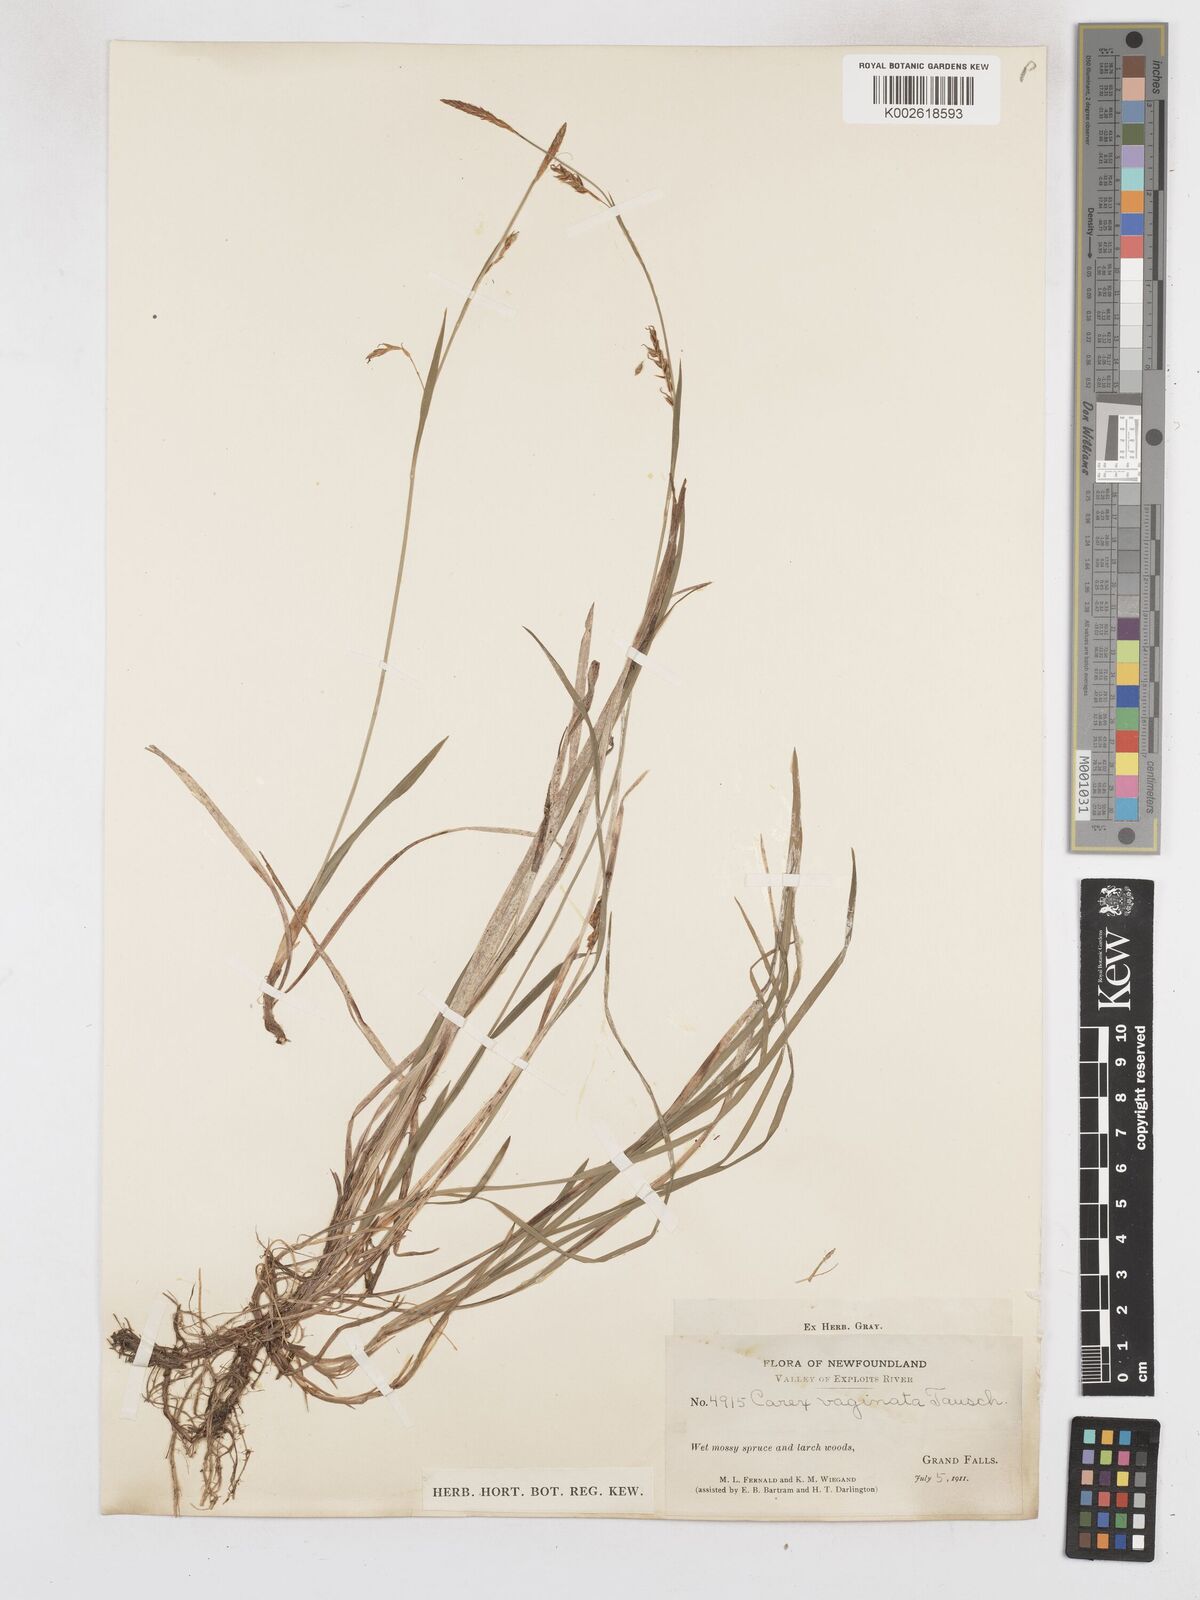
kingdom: Plantae
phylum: Tracheophyta
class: Liliopsida
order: Poales
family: Cyperaceae
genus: Carex
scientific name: Carex vaginata
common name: Sheathed sedge
